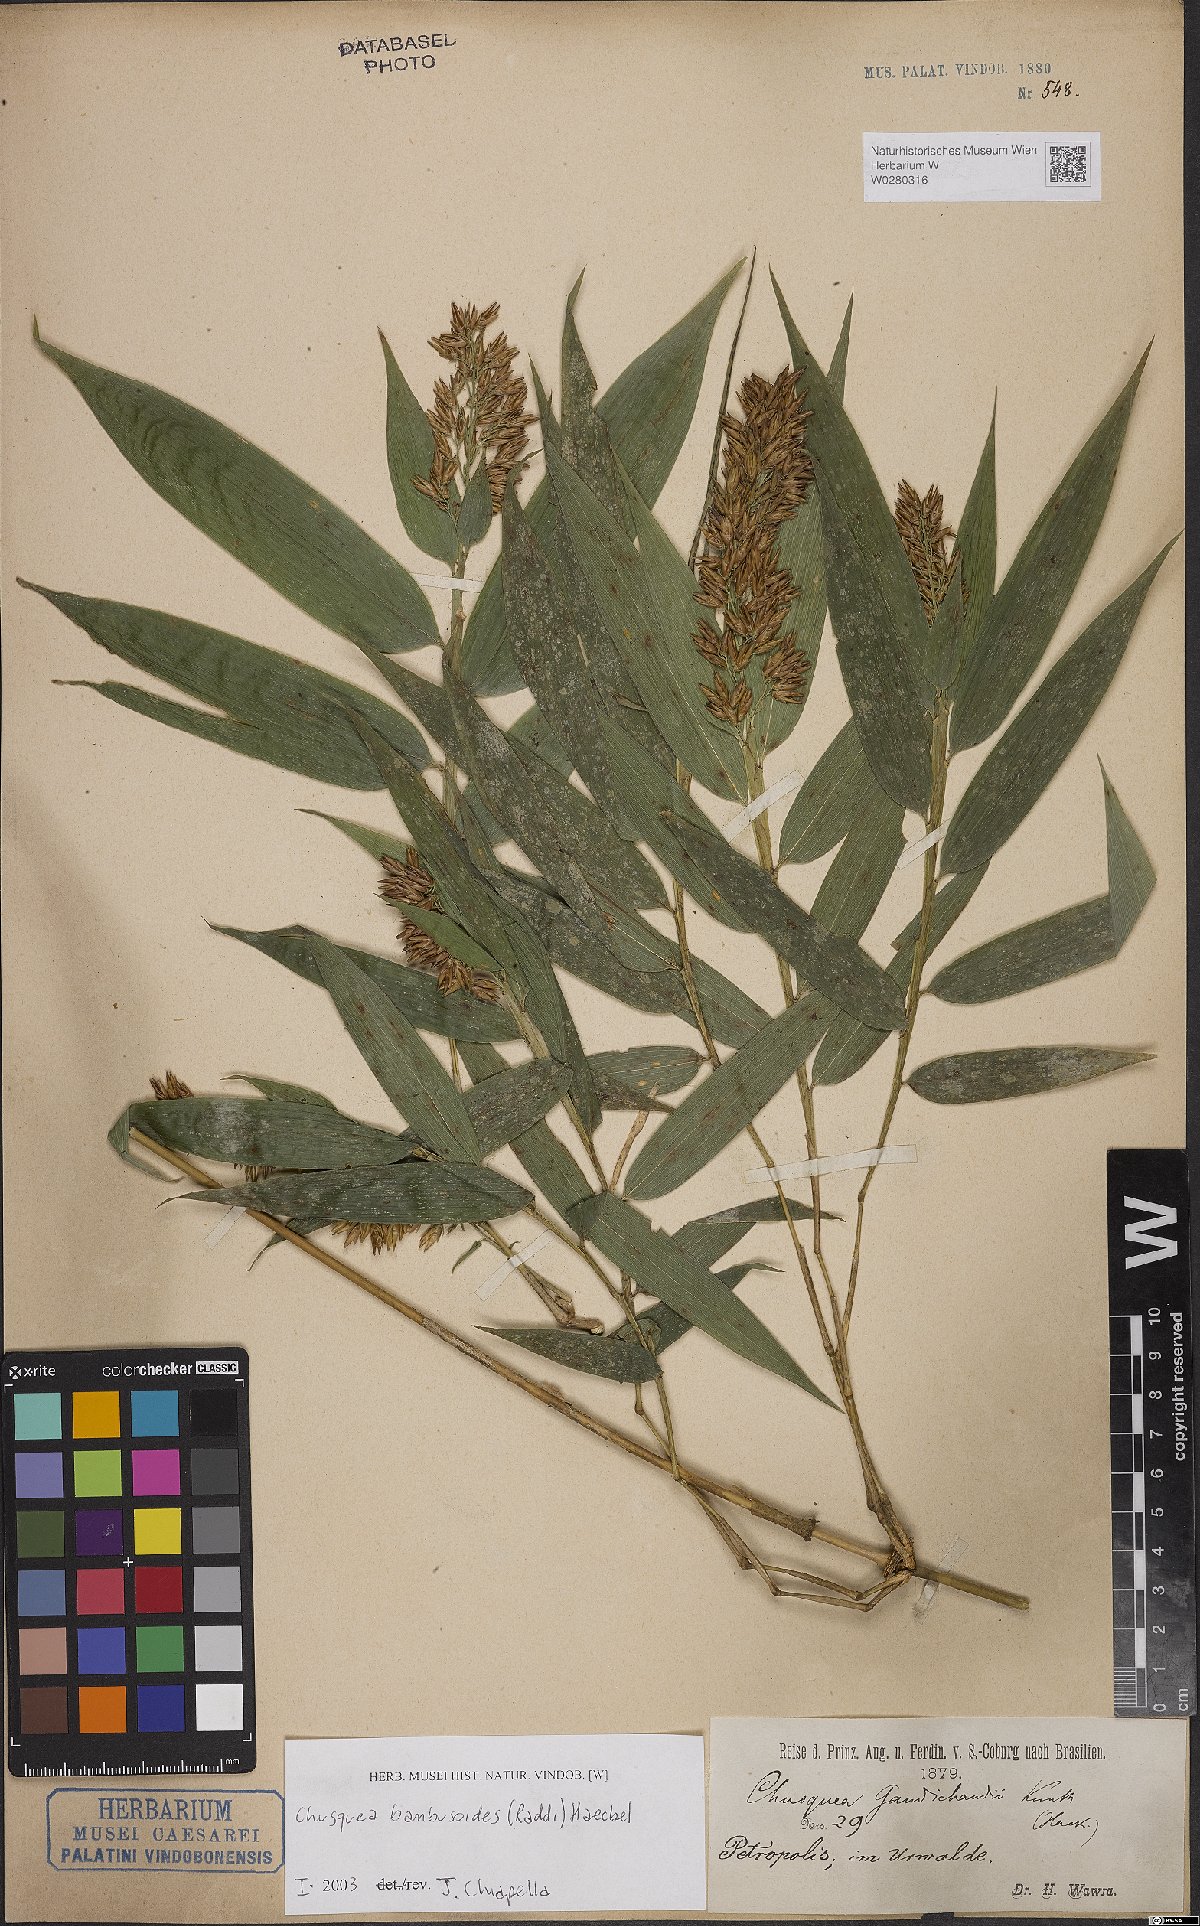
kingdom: Plantae
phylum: Tracheophyta
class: Liliopsida
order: Poales
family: Poaceae
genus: Chusquea
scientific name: Chusquea bambusoides
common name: Brazil scrambling bamboo
